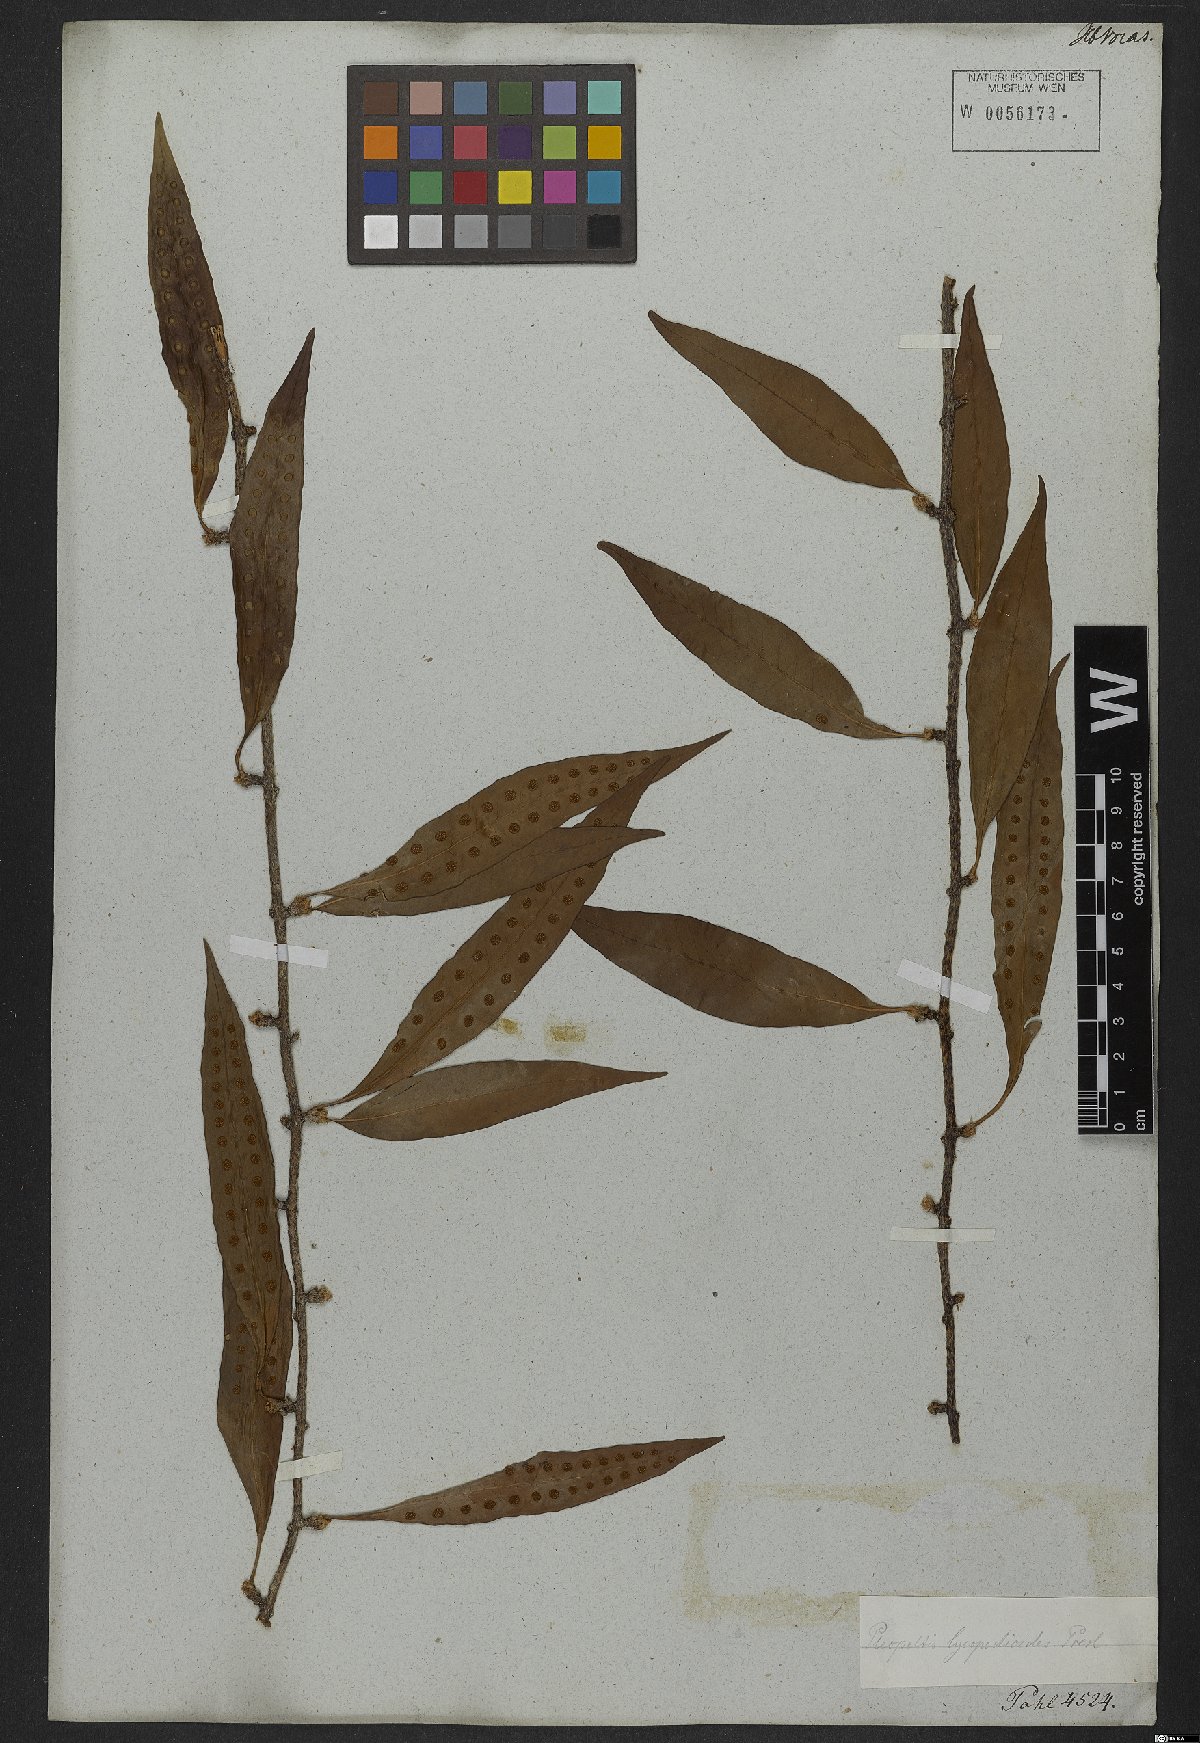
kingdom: Plantae
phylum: Tracheophyta
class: Polypodiopsida
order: Polypodiales
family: Polypodiaceae
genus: Microgramma
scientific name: Microgramma lycopodioides
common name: Bastard catclaw
